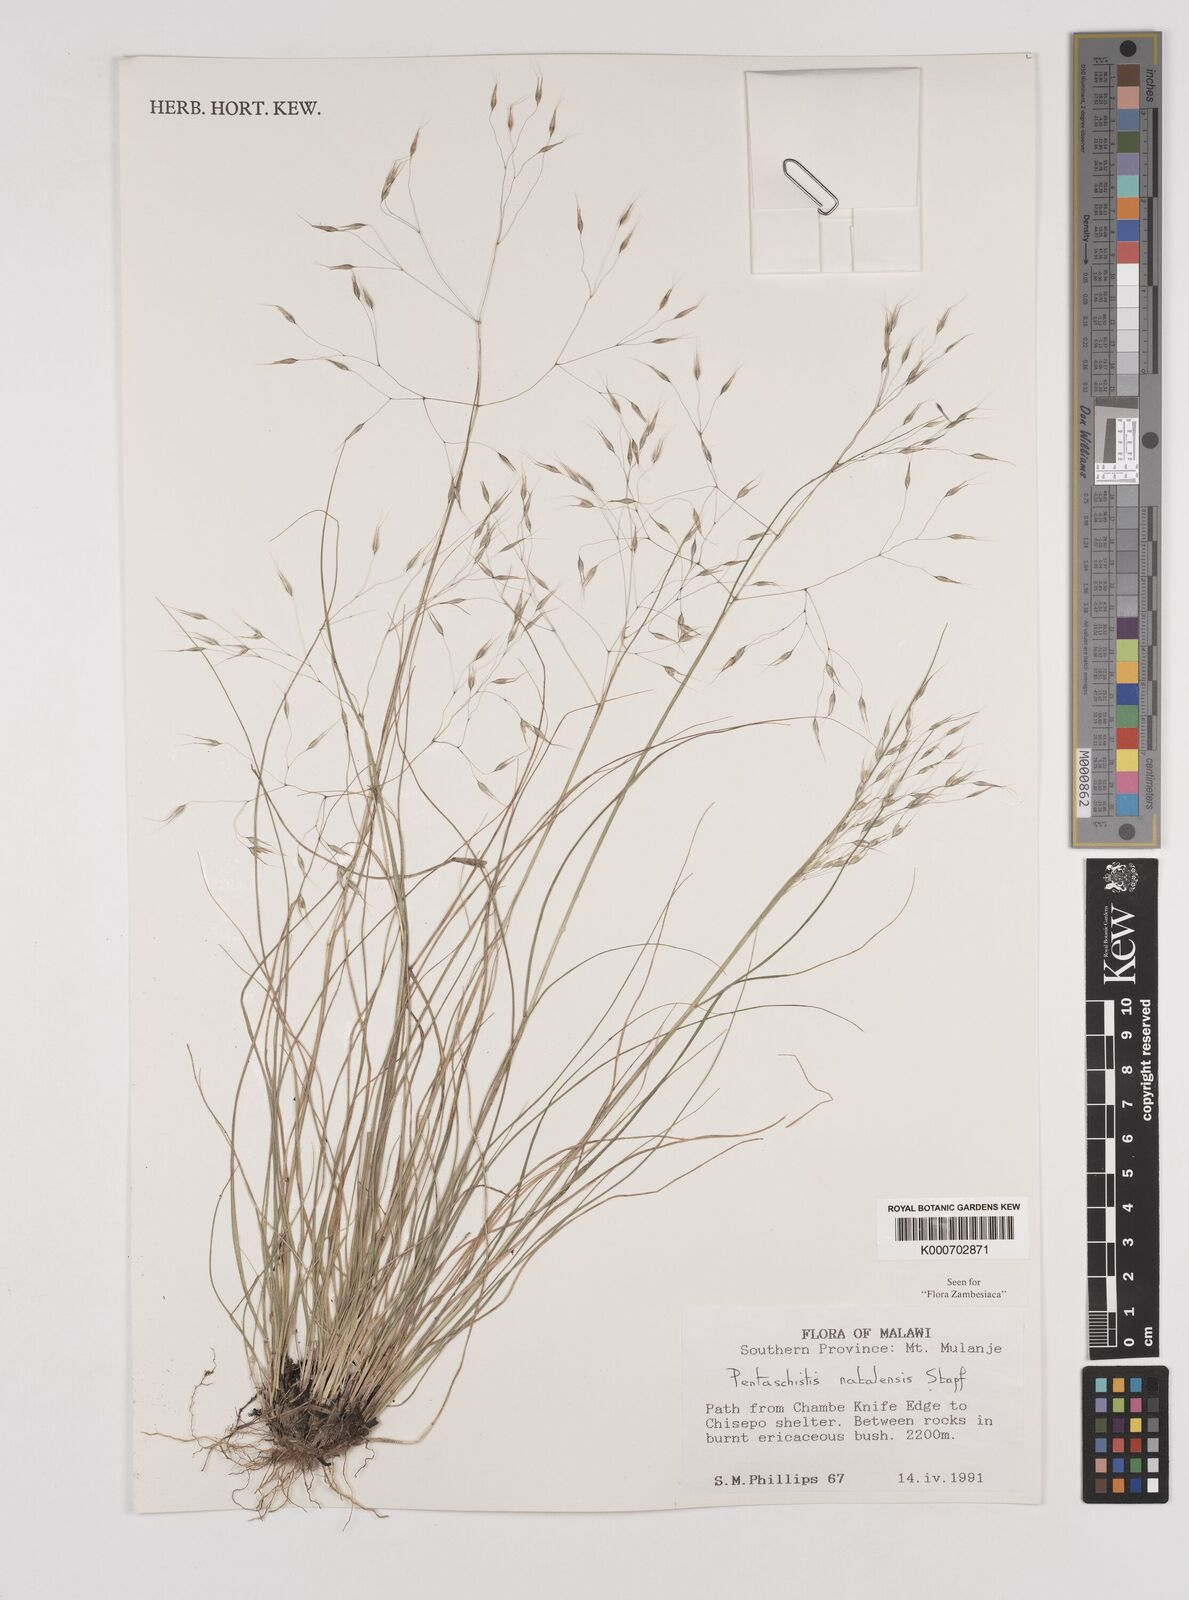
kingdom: Plantae
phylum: Tracheophyta
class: Liliopsida
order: Poales
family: Poaceae
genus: Pentameris
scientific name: Pentameris natalensis
